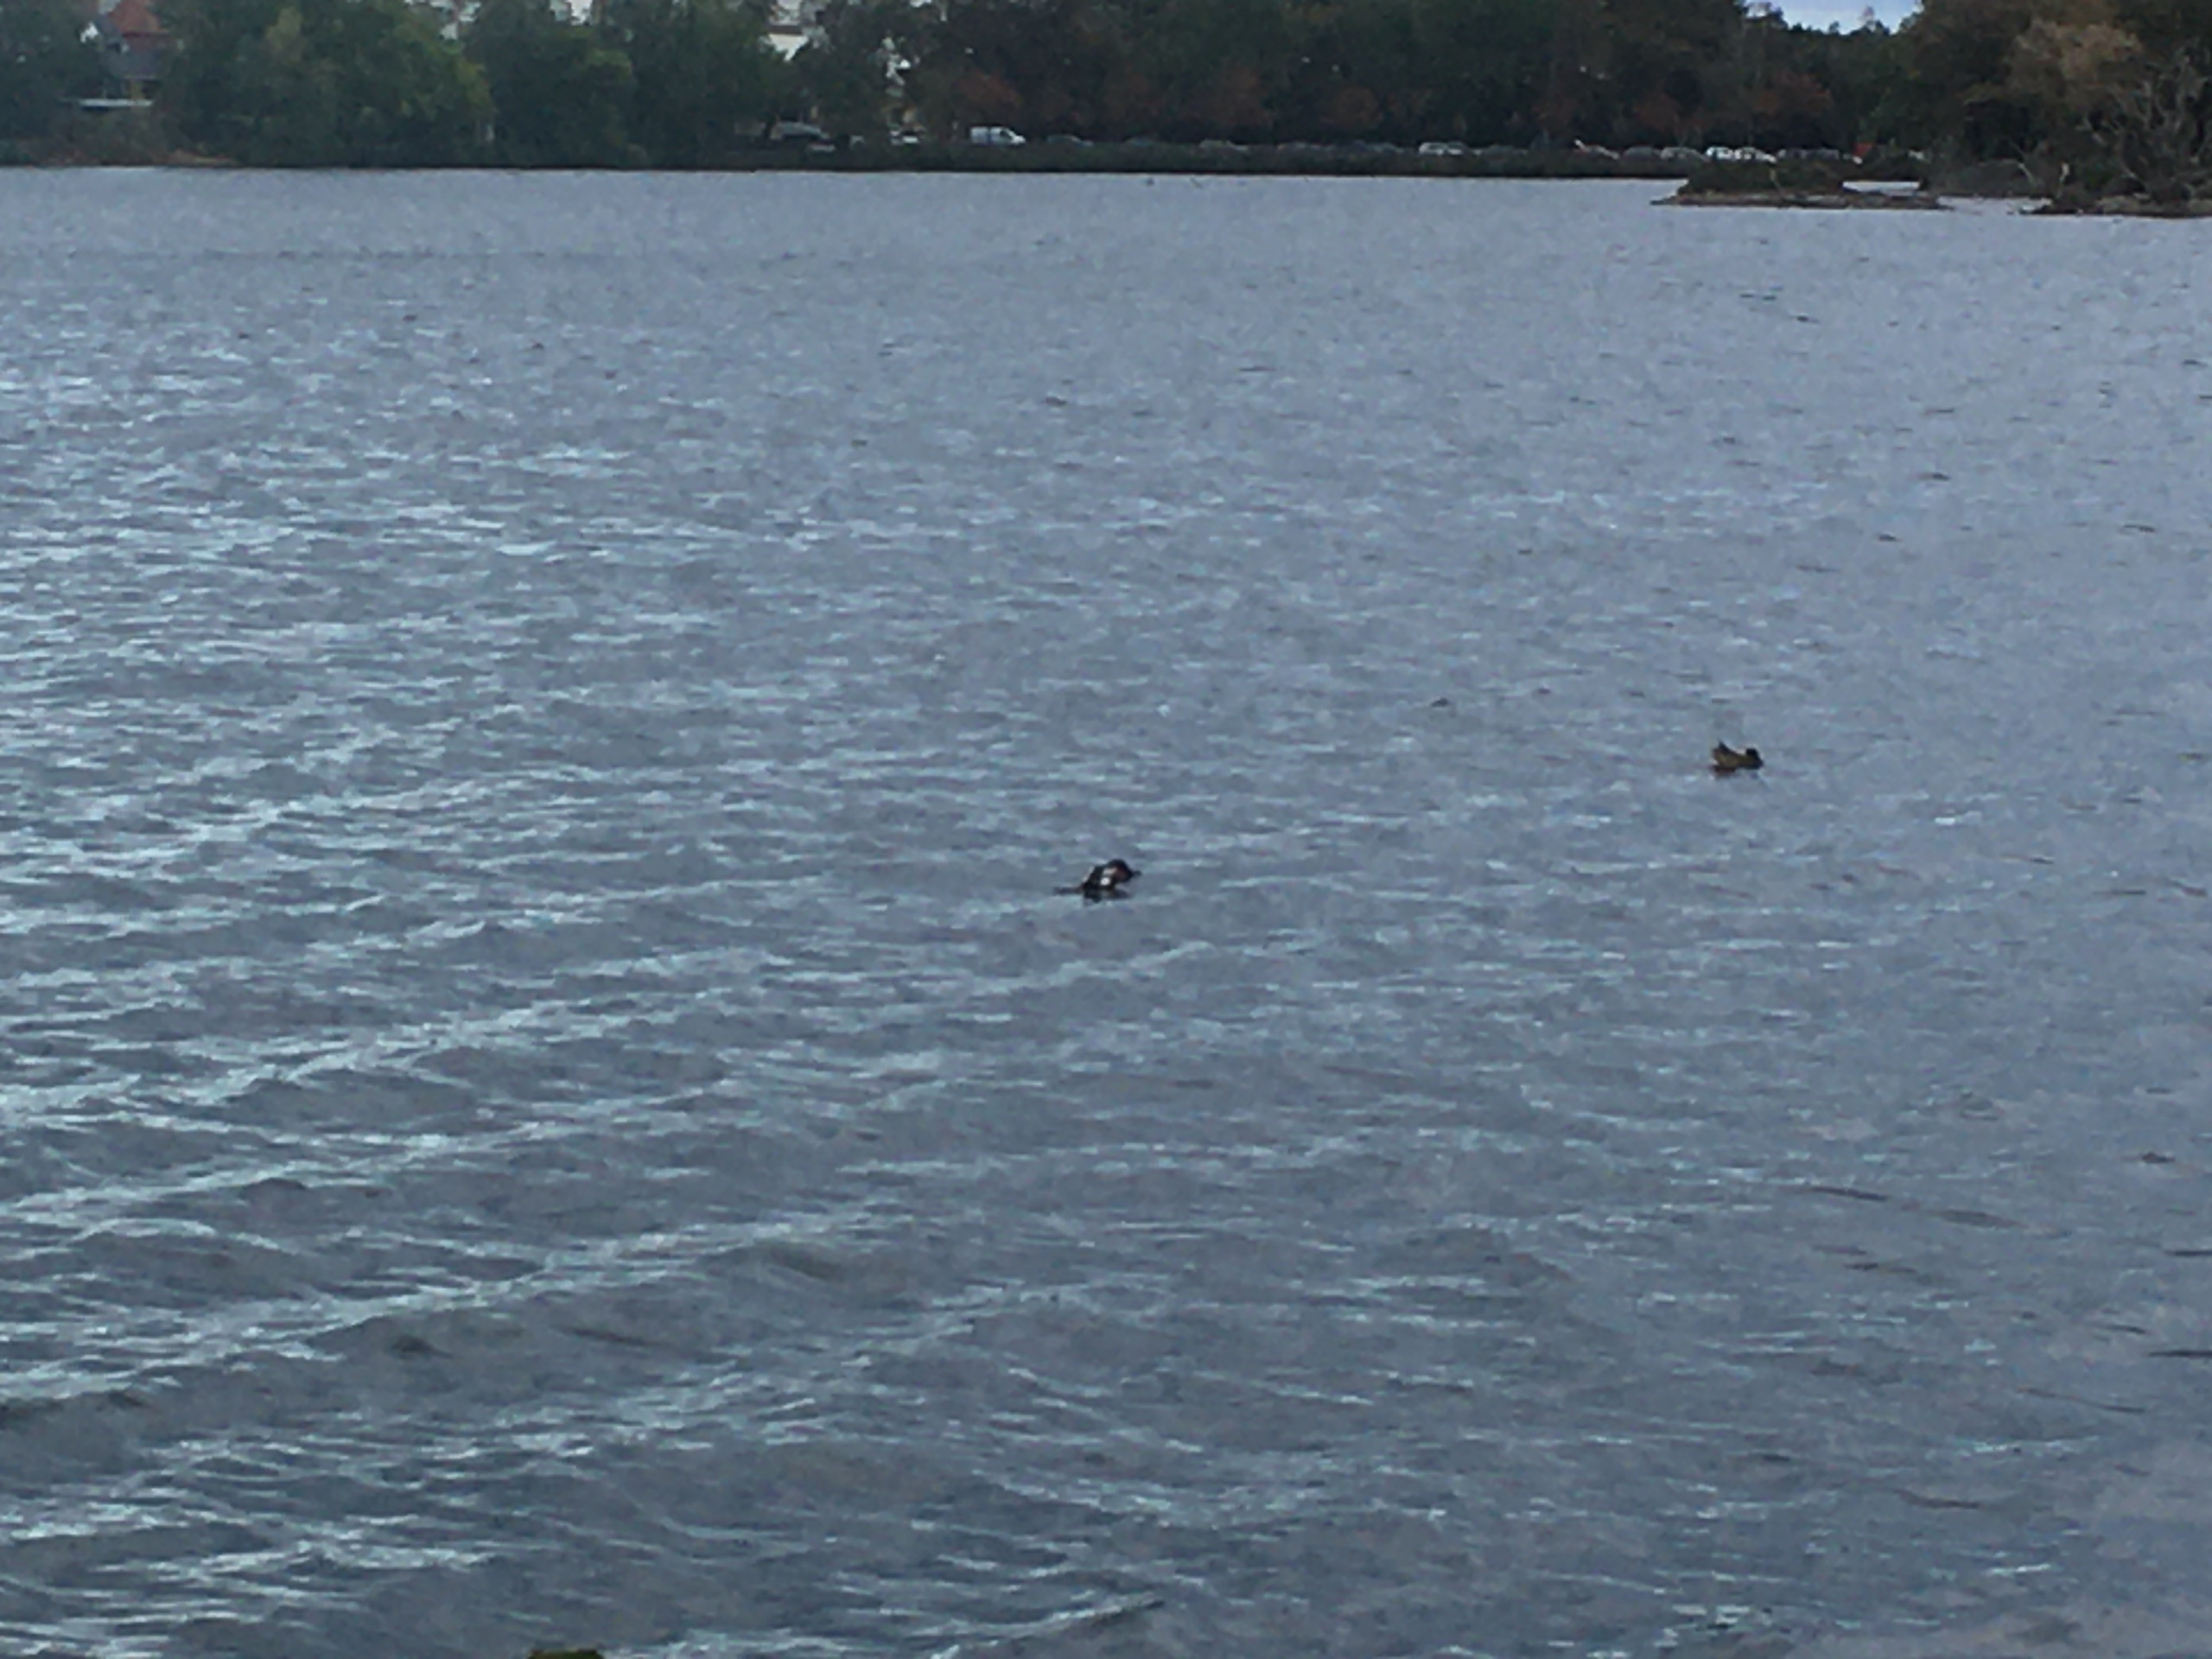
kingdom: Animalia
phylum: Chordata
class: Aves
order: Anseriformes
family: Anatidae
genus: Spatula
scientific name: Spatula clypeata
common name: Skeand
